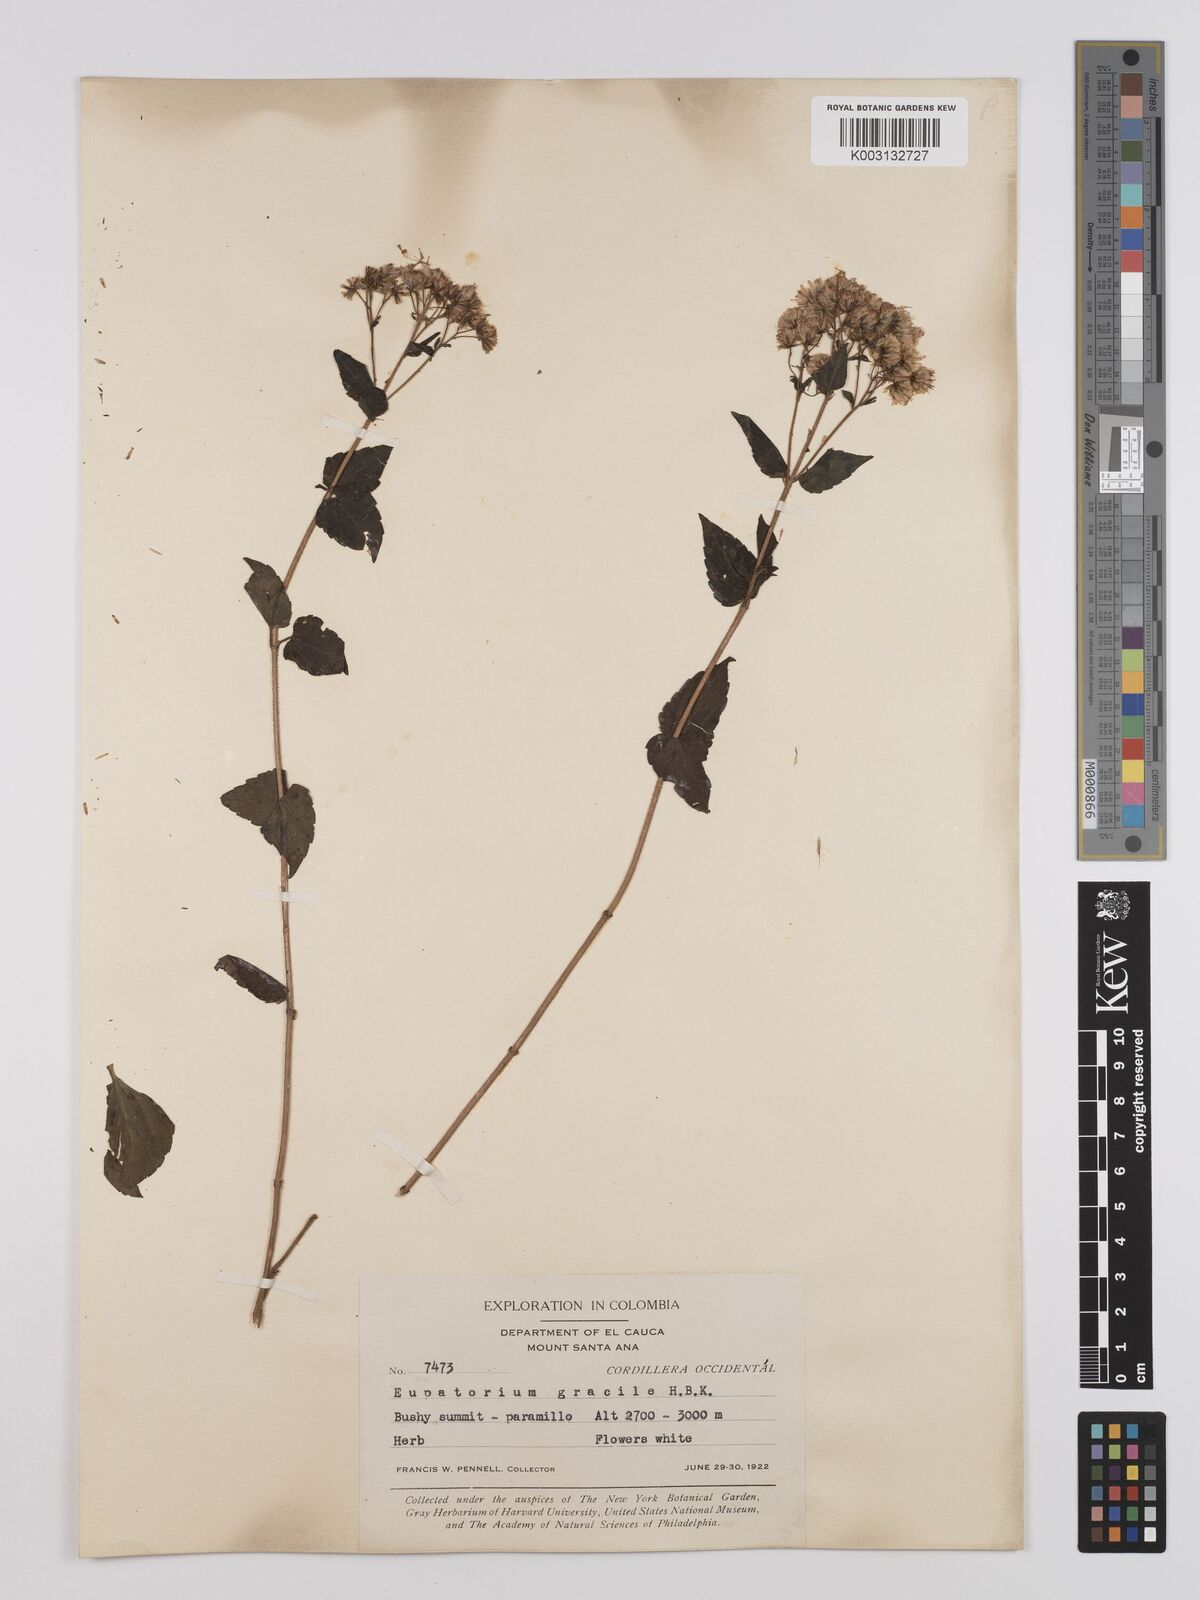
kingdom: Plantae
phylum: Tracheophyta
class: Magnoliopsida
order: Asterales
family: Asteraceae
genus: Ageratina
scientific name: Ageratina gracilis
